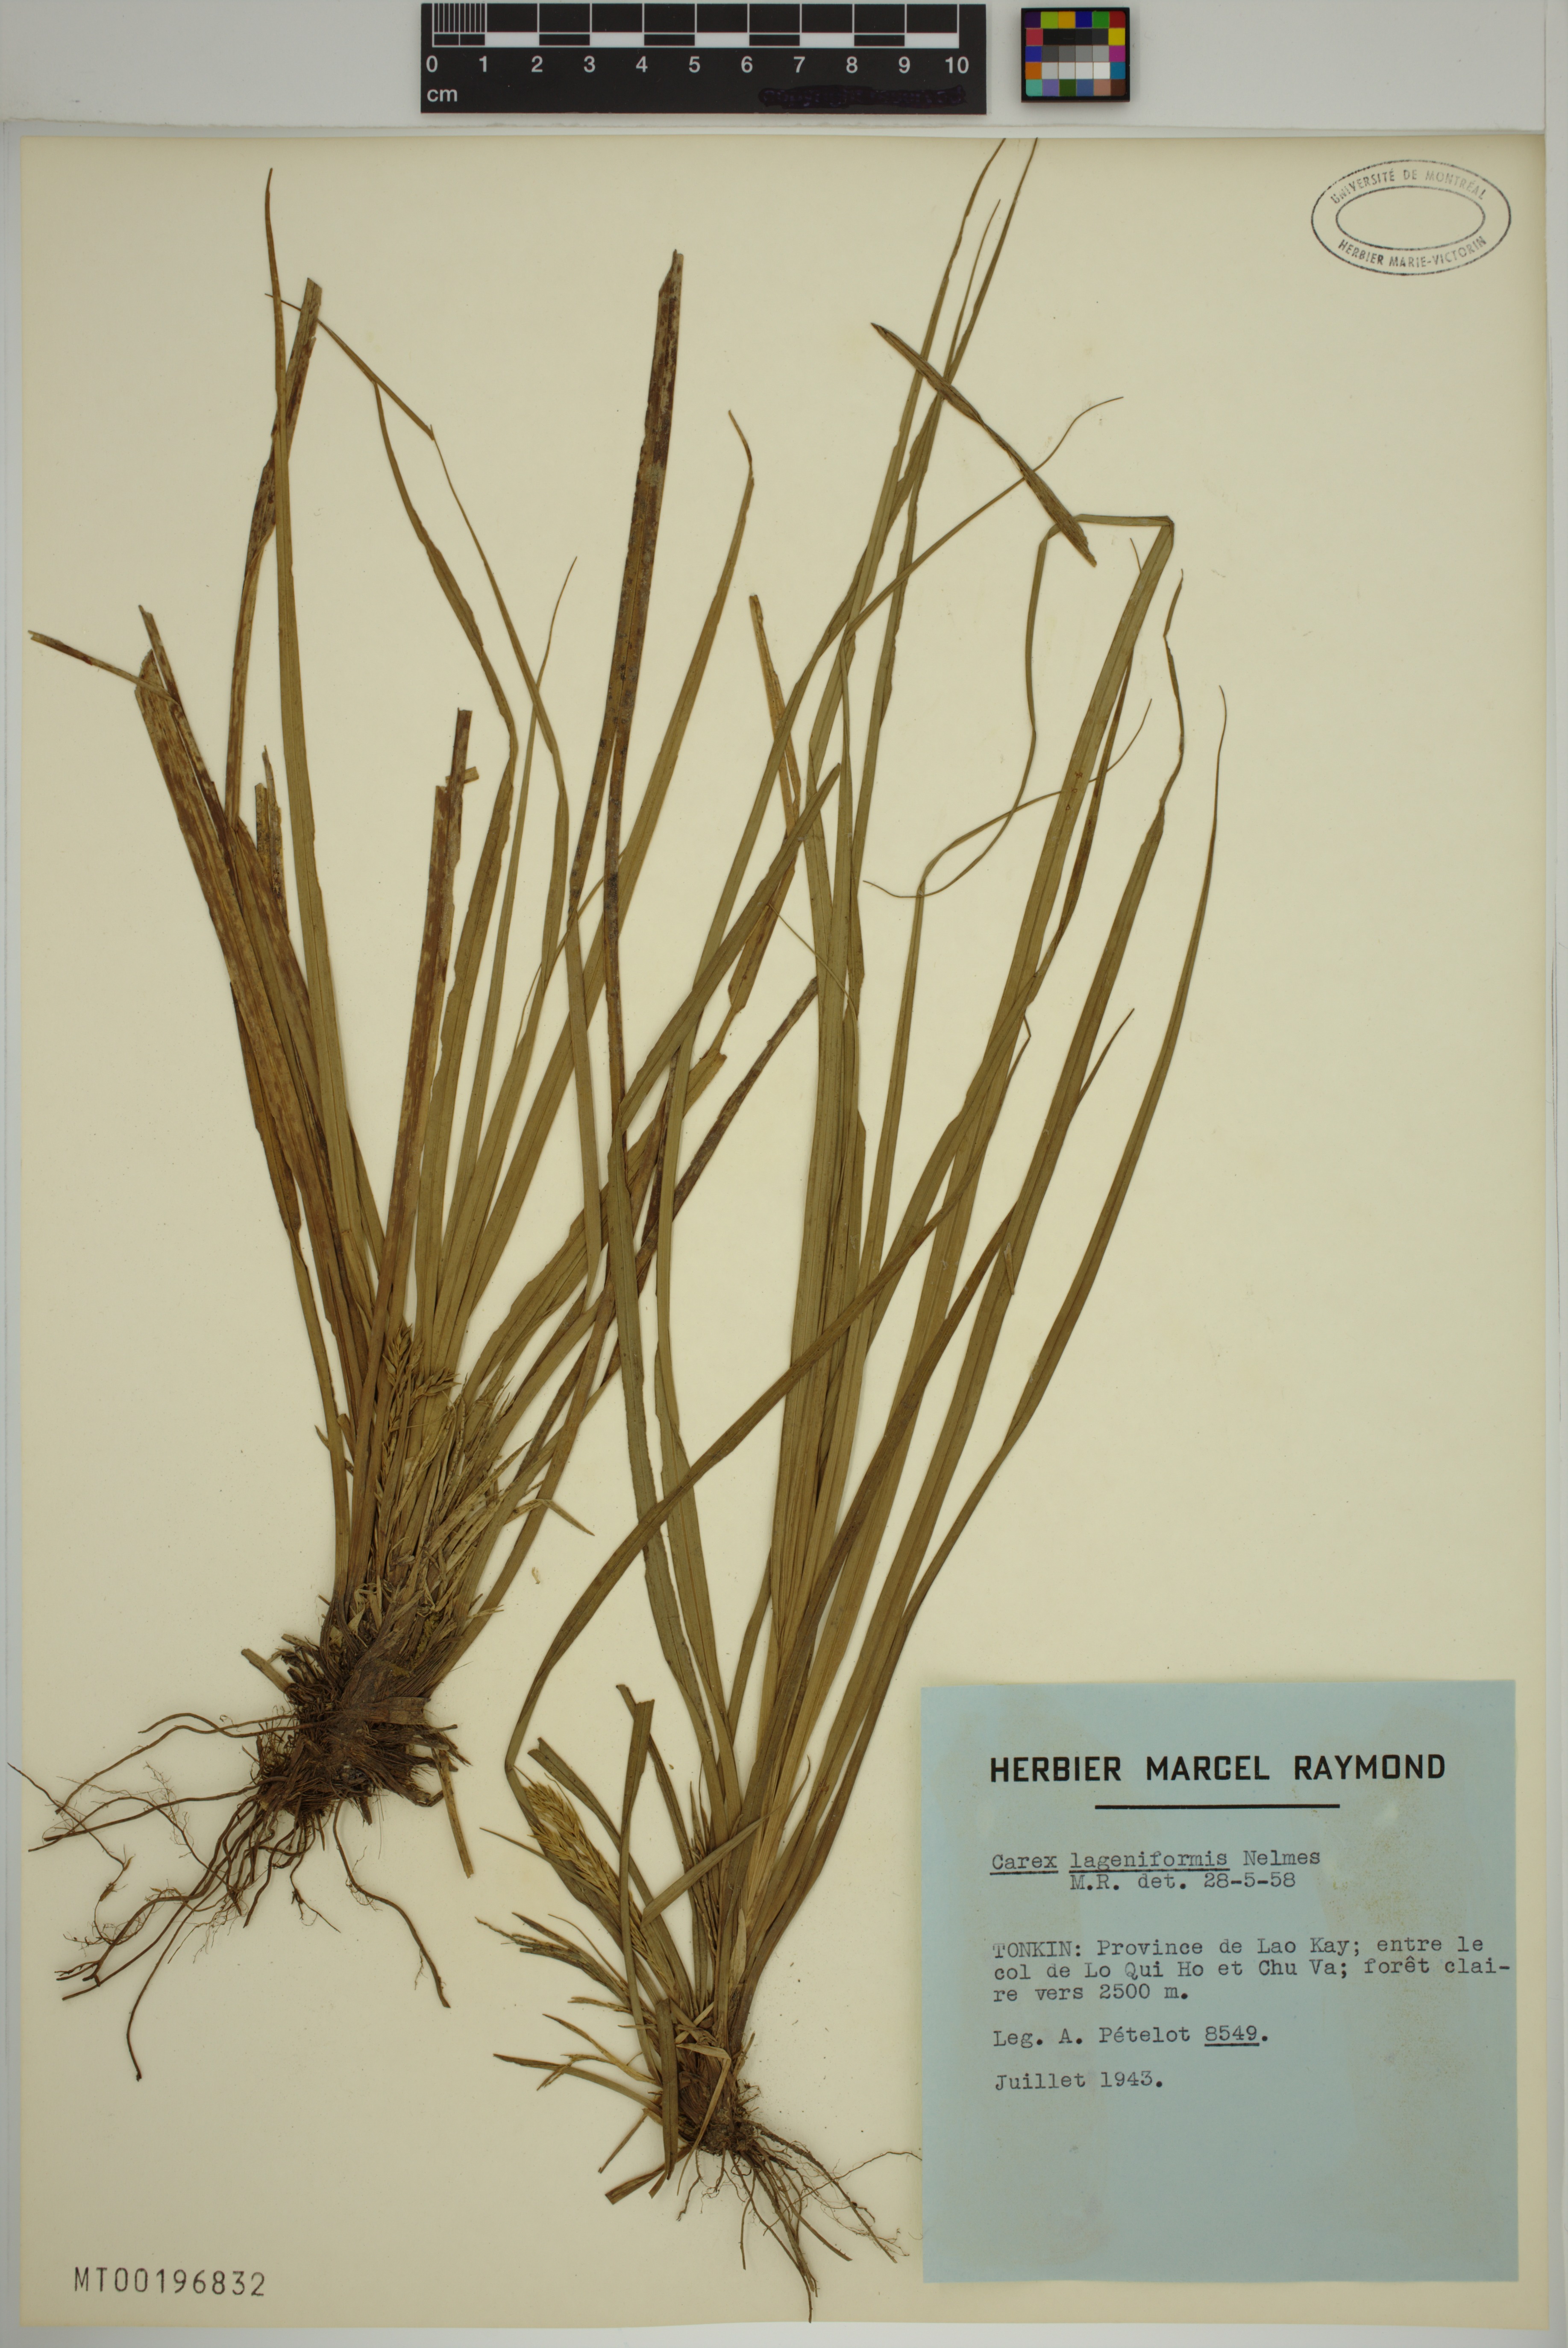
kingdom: Plantae
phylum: Tracheophyta
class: Liliopsida
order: Poales
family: Cyperaceae
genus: Carex
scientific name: Carex lageniformis
